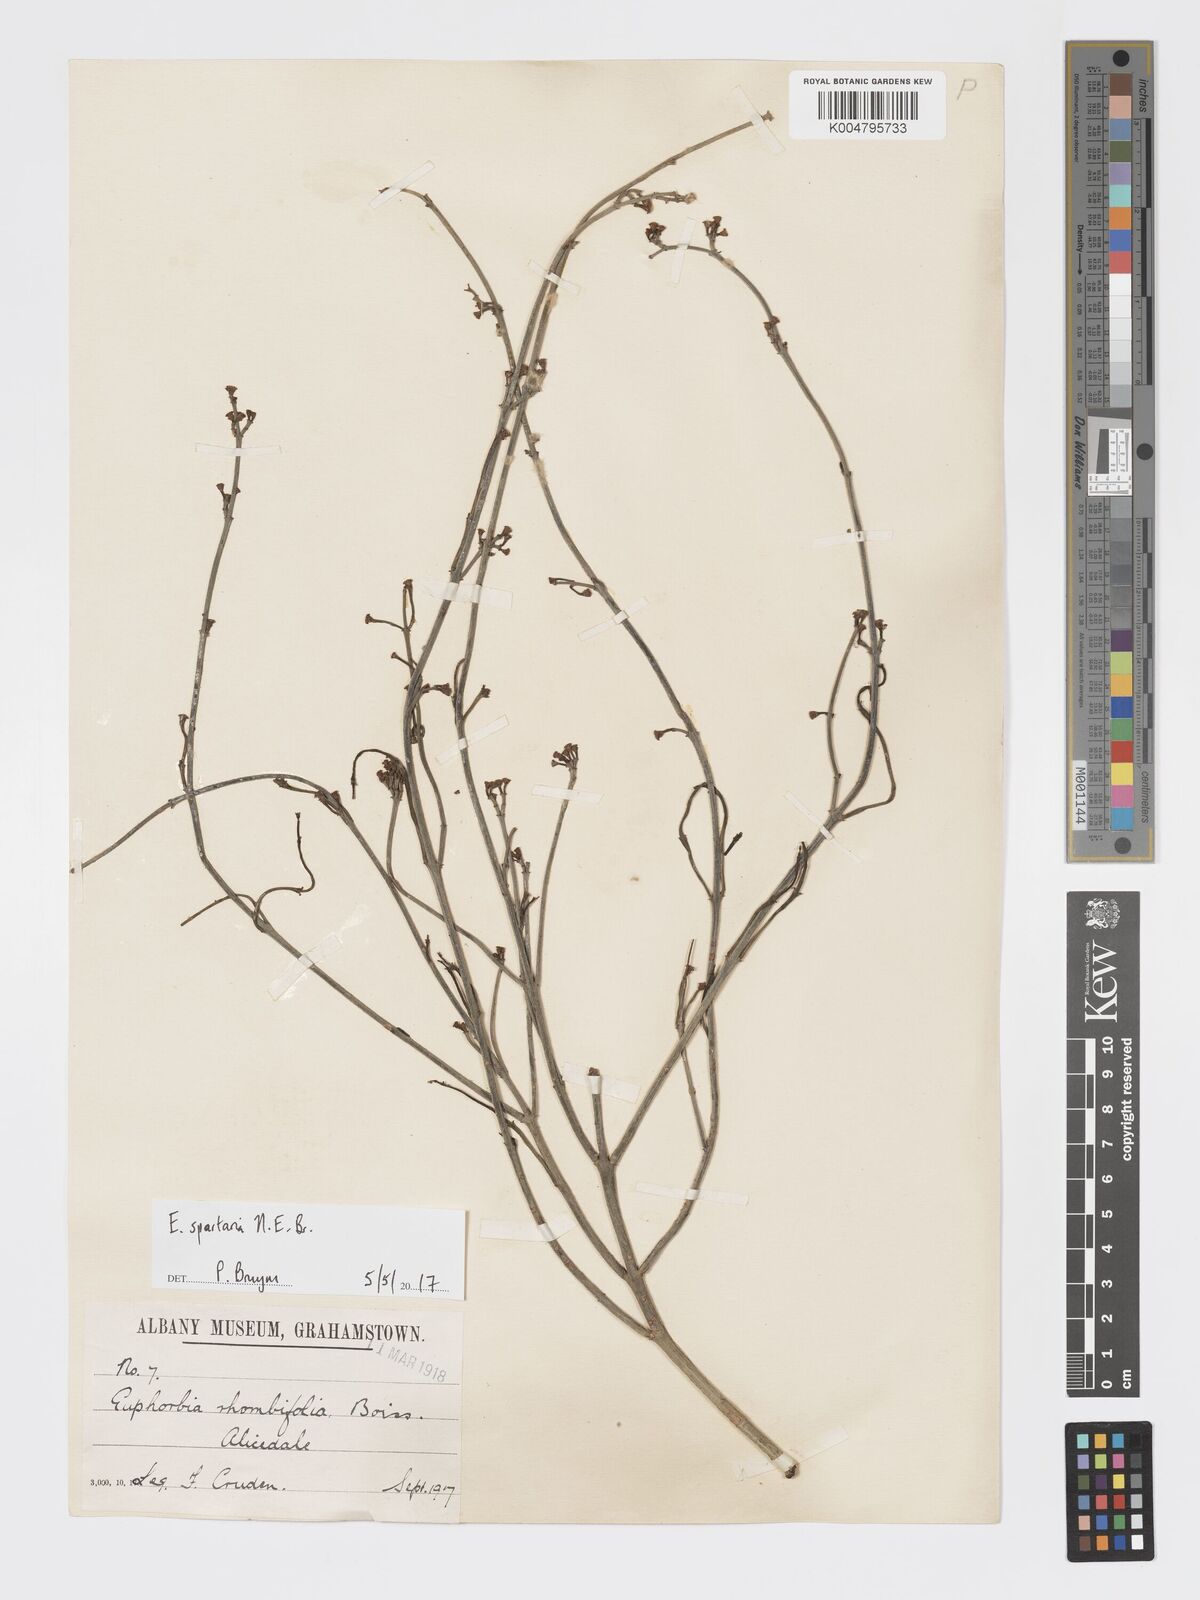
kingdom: Plantae
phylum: Tracheophyta
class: Magnoliopsida
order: Malpighiales
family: Euphorbiaceae
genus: Euphorbia
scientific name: Euphorbia spartaria
